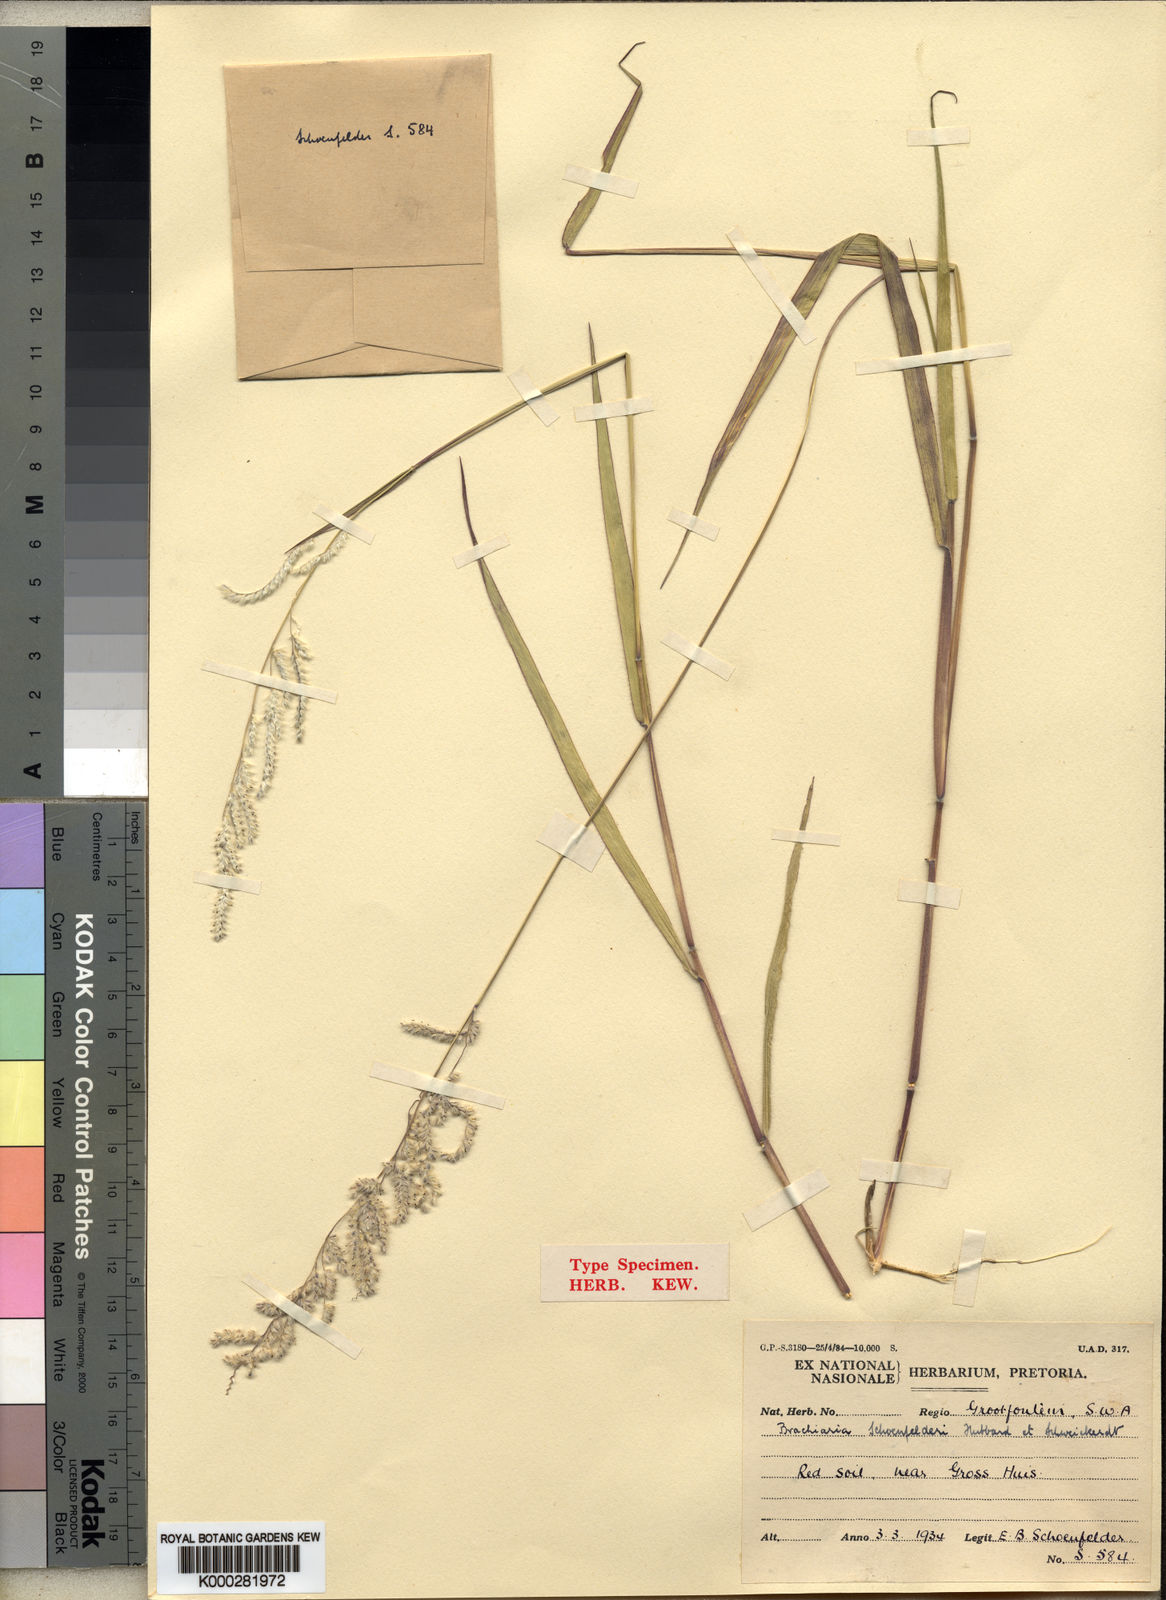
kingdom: Plantae
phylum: Tracheophyta
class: Liliopsida
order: Poales
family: Poaceae
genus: Moorochloa
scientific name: Moorochloa schoenfelderi
